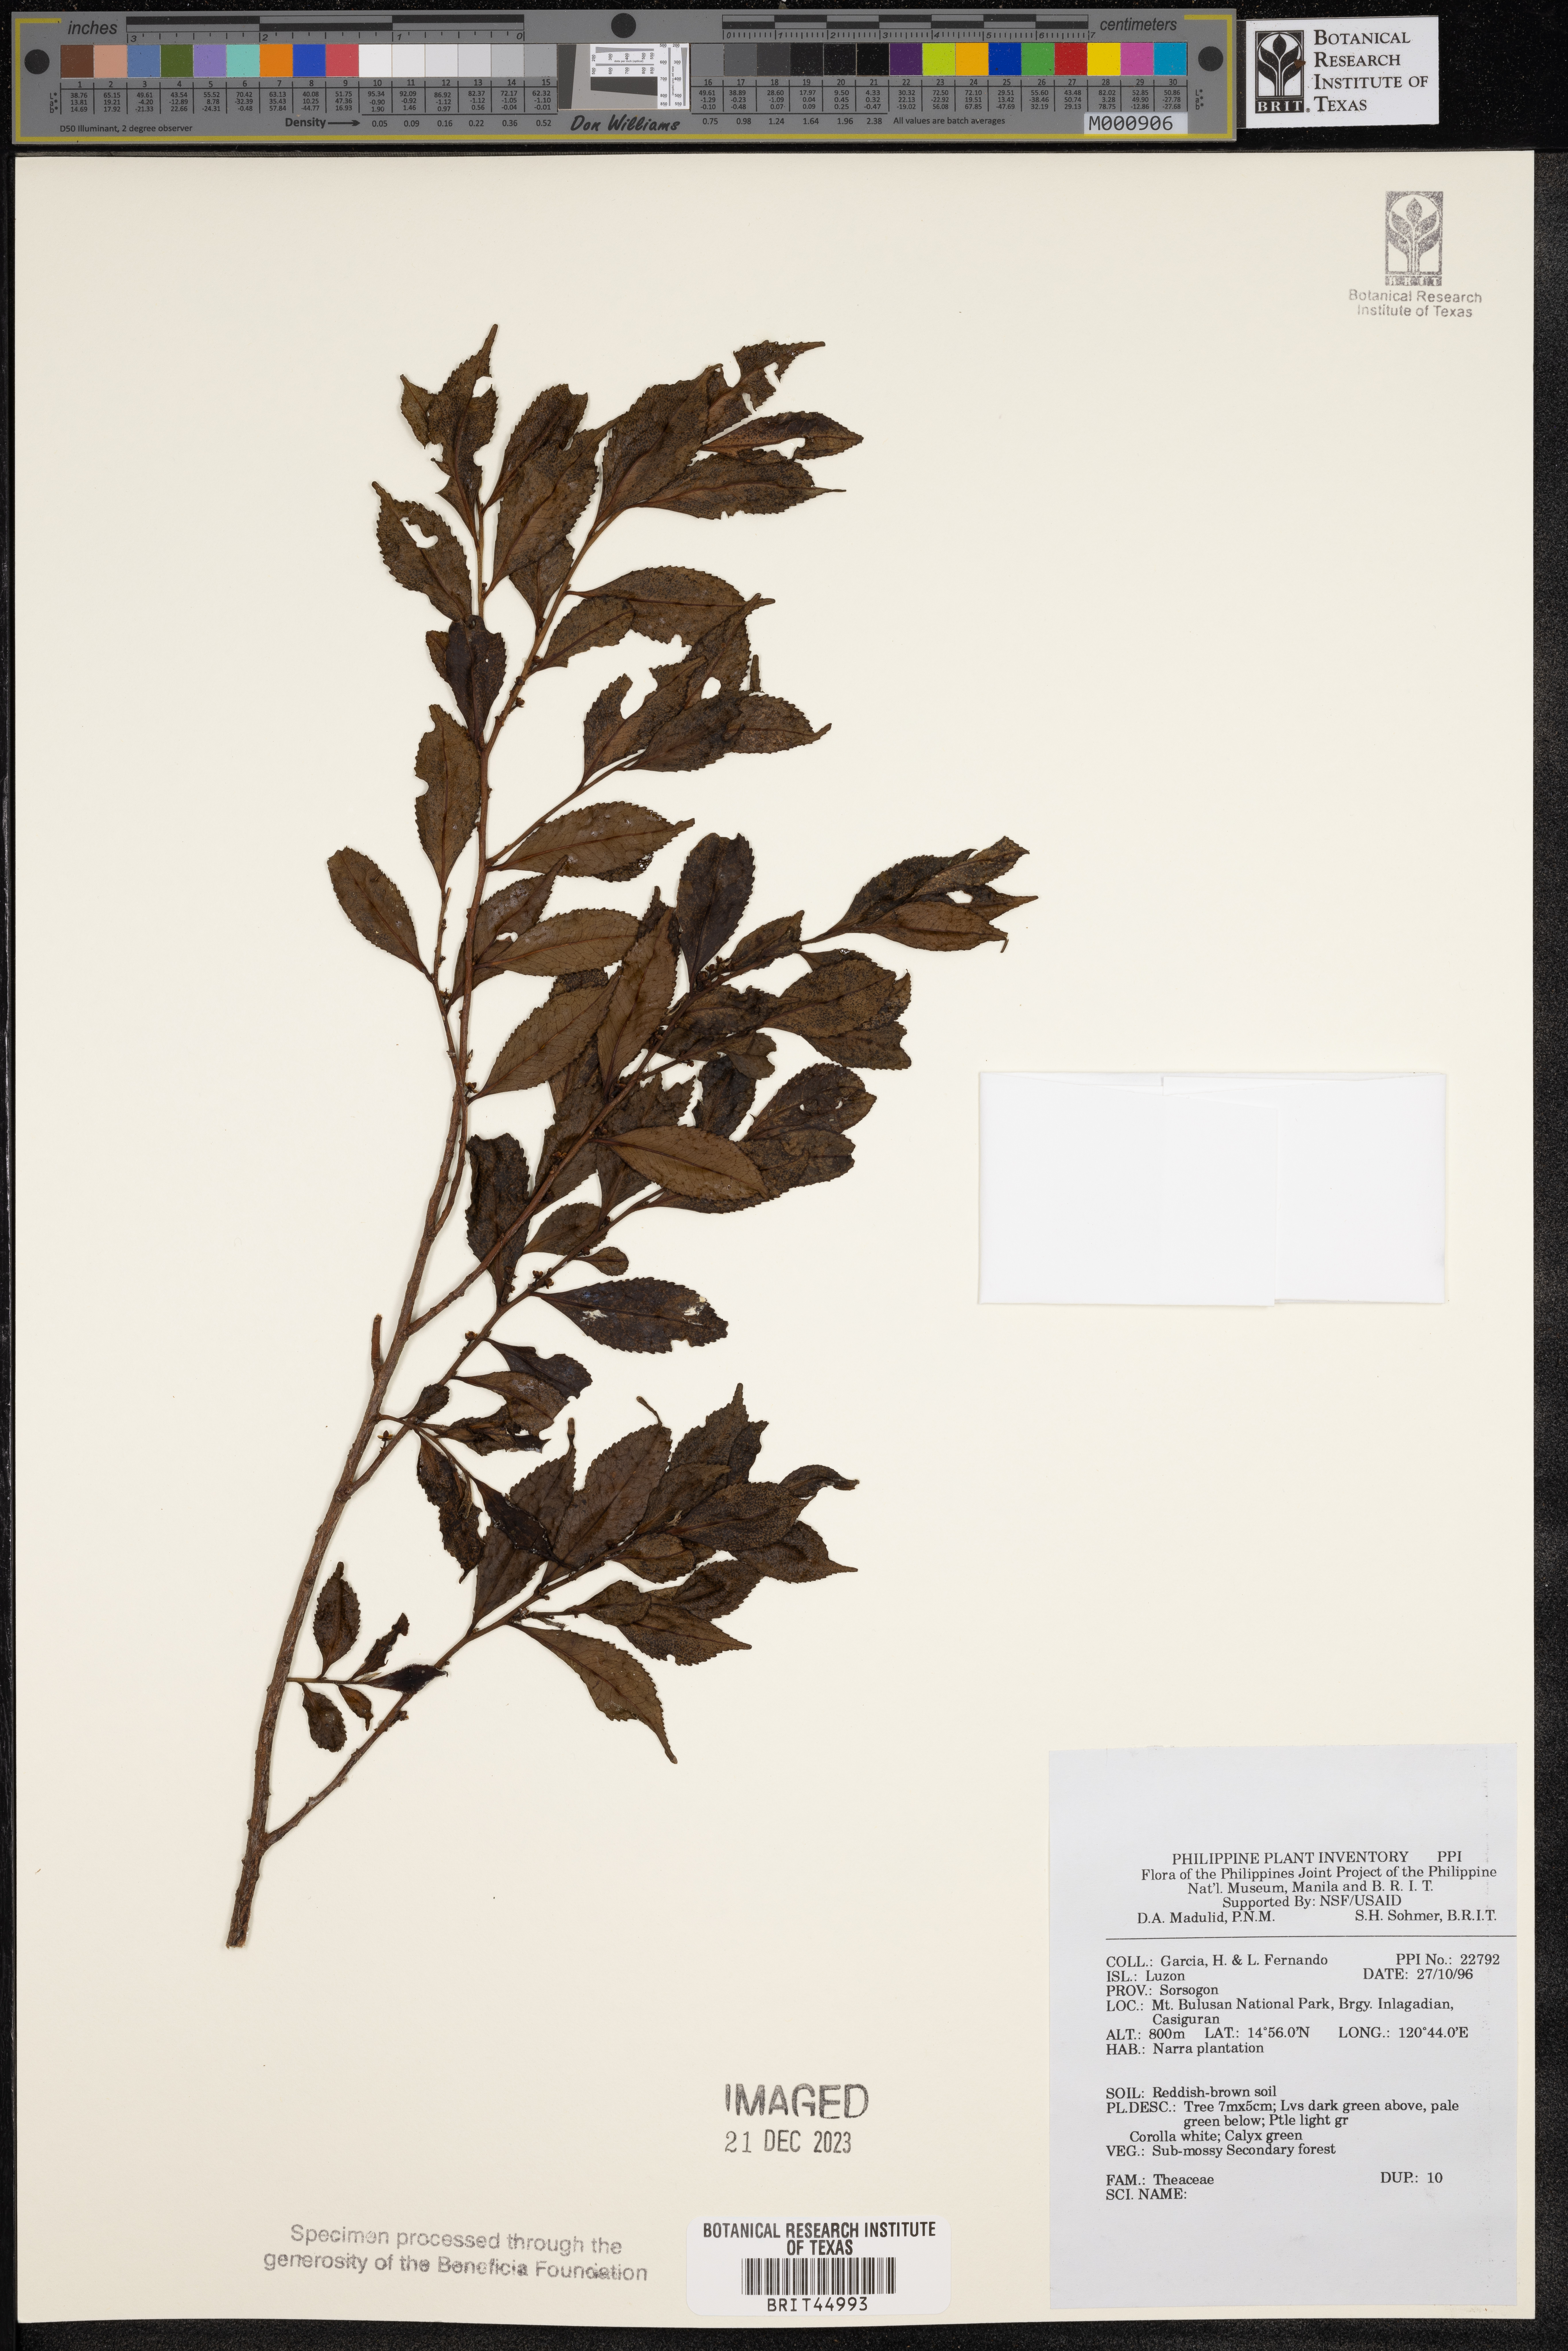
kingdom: Plantae
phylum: Tracheophyta
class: Magnoliopsida
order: Ericales
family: Theaceae
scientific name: Theaceae
